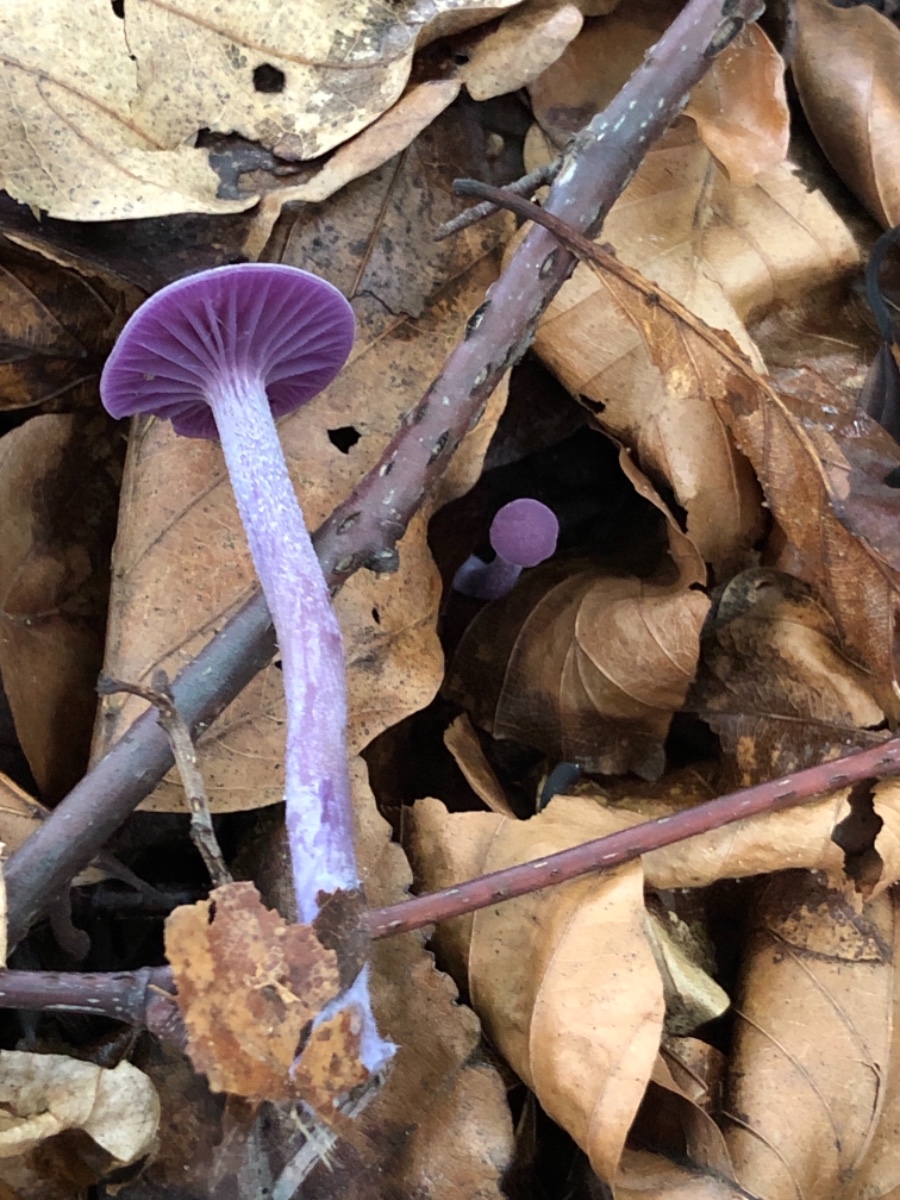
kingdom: Fungi
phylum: Basidiomycota
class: Agaricomycetes
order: Agaricales
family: Hydnangiaceae
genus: Laccaria
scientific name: Laccaria amethystina
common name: violet ametysthat
